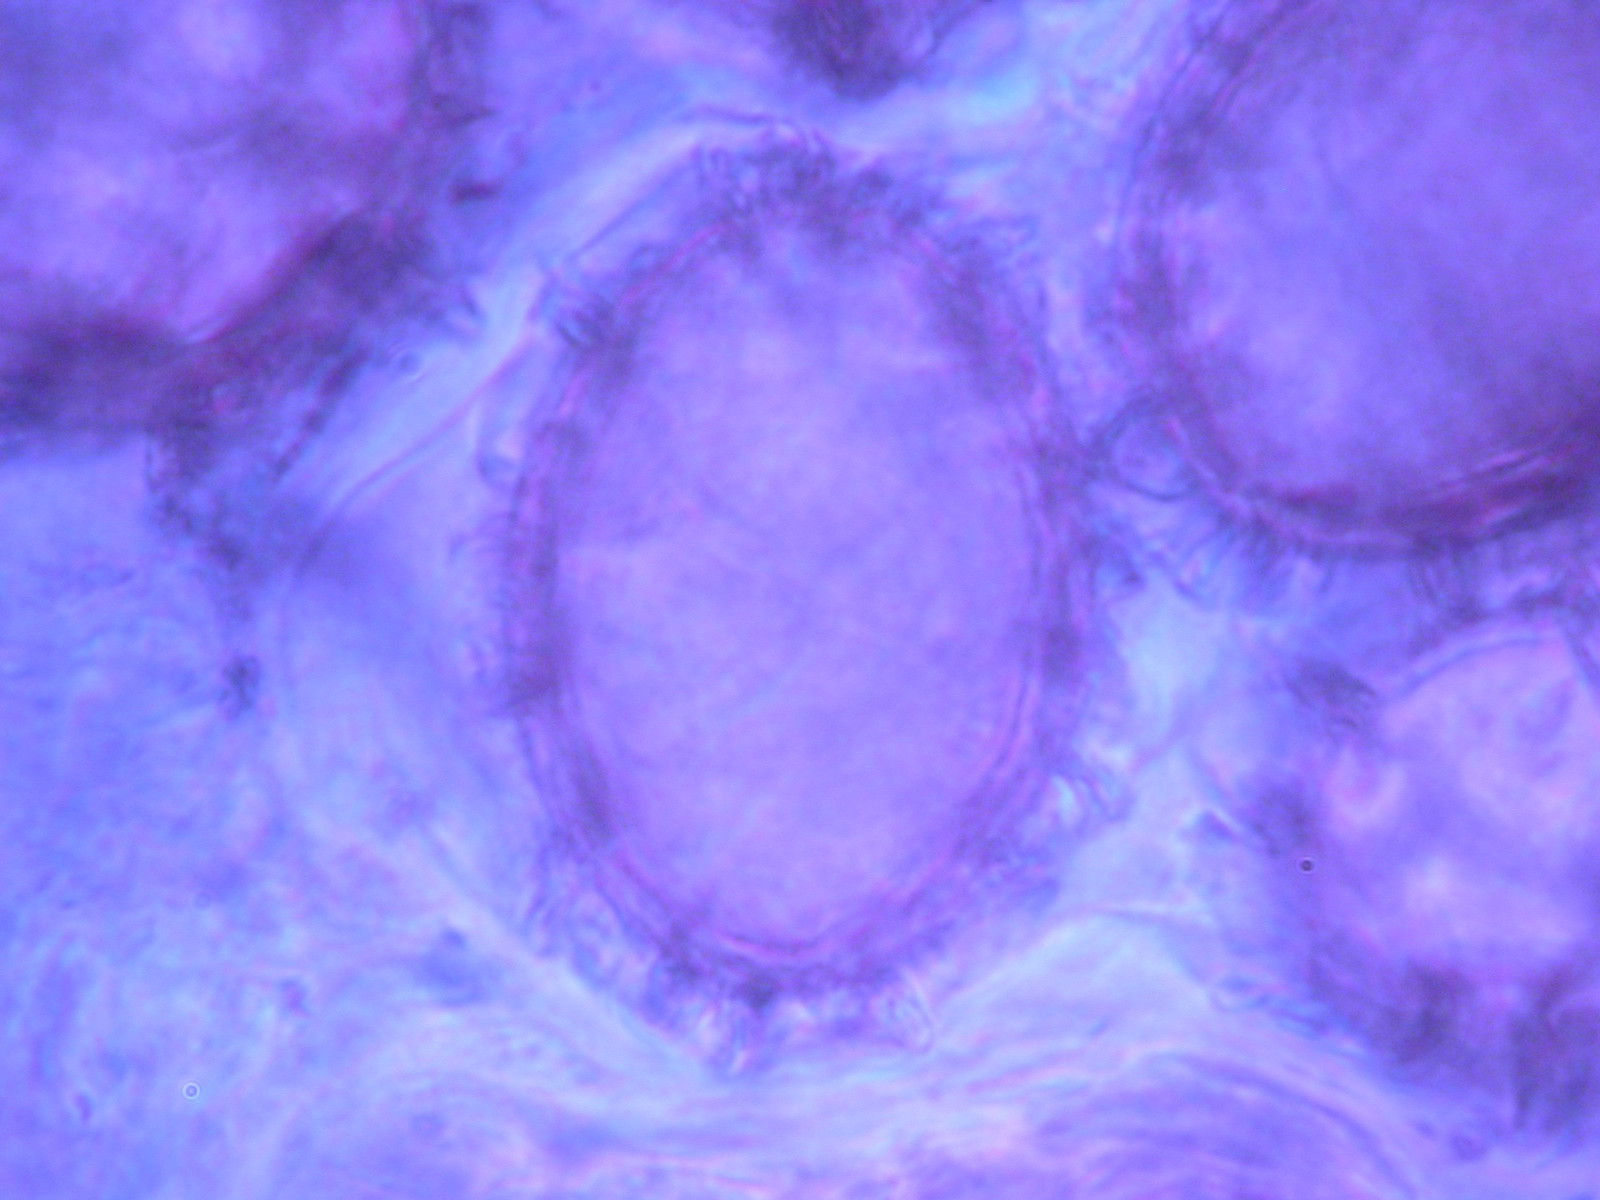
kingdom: Fungi
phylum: Ascomycota
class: Pezizomycetes
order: Pezizales
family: Tuberaceae
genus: Tuber
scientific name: Tuber aestivum
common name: sommer-trøffel
